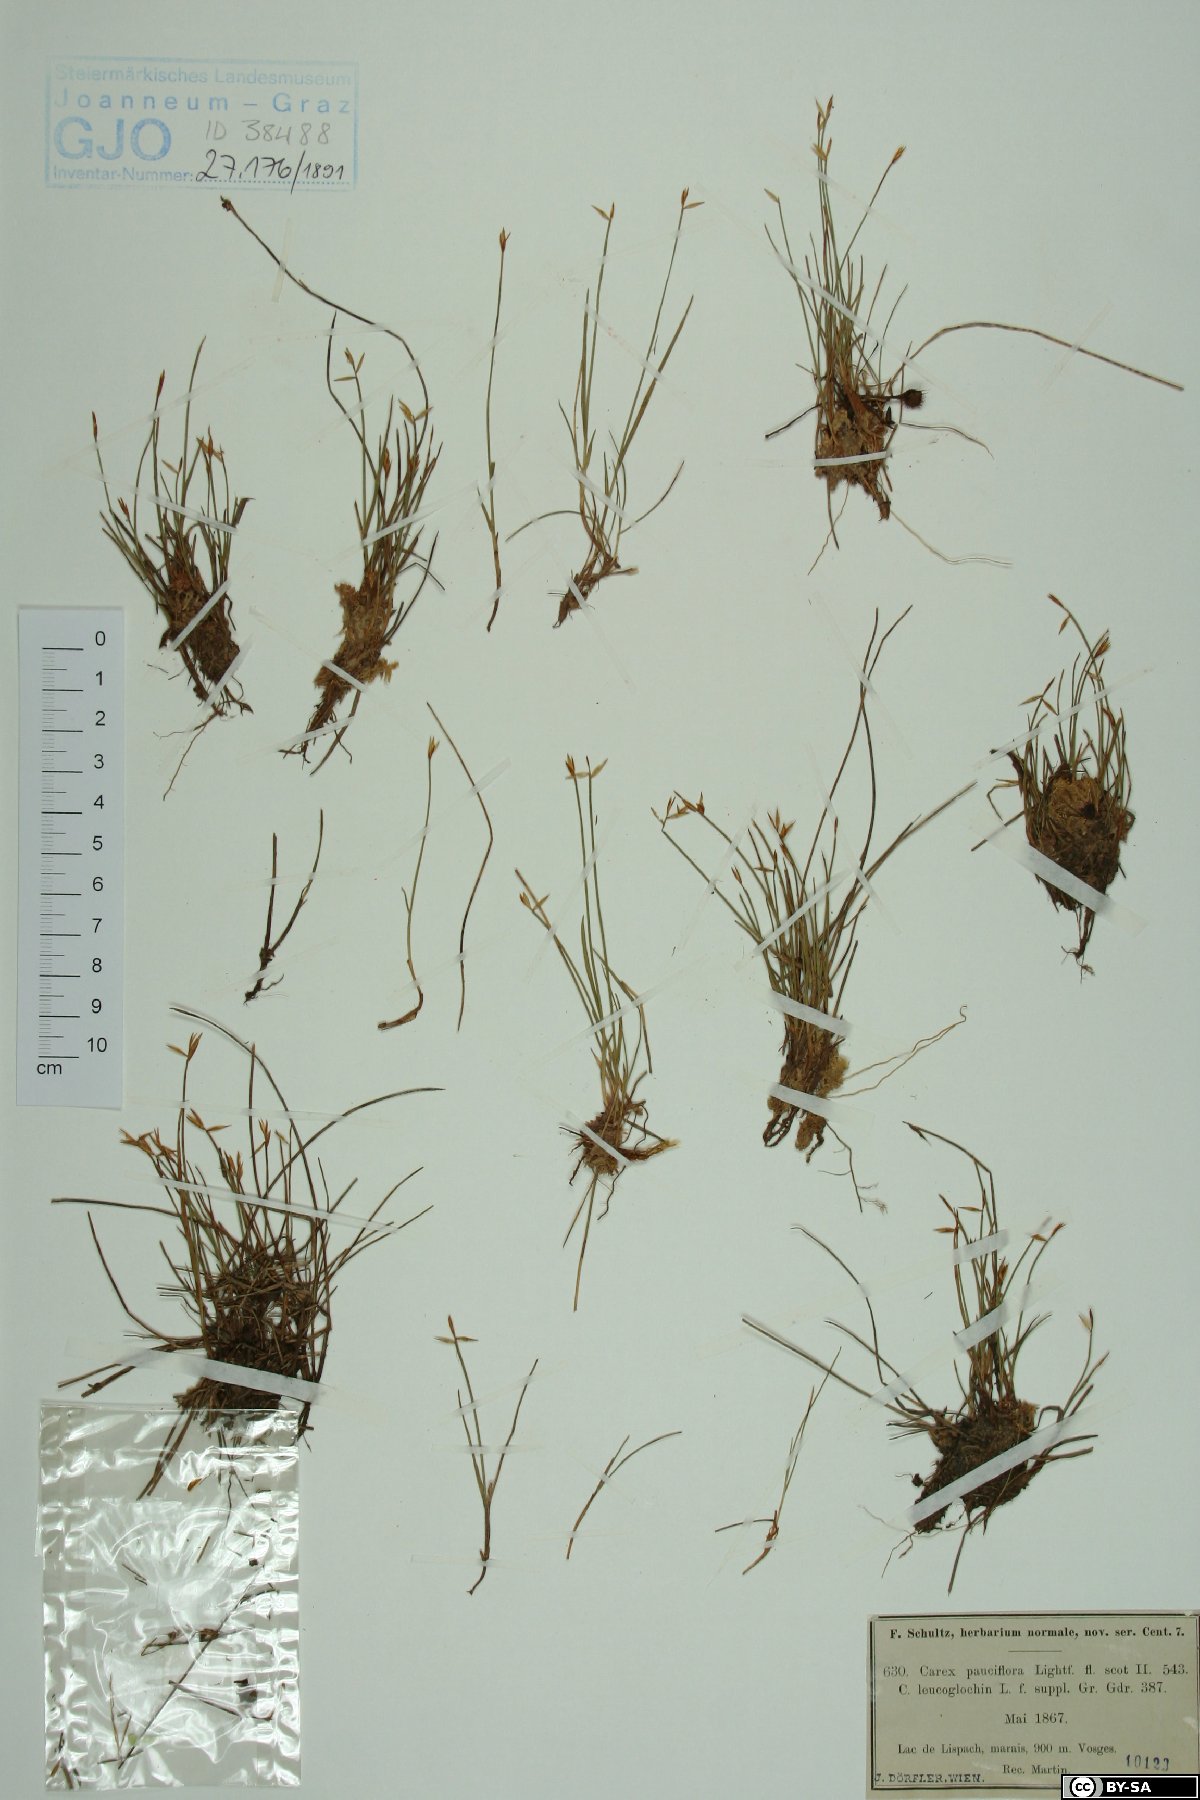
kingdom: Plantae
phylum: Tracheophyta
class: Liliopsida
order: Poales
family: Cyperaceae
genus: Carex
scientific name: Carex pauciflora
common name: Few-flowered sedge
